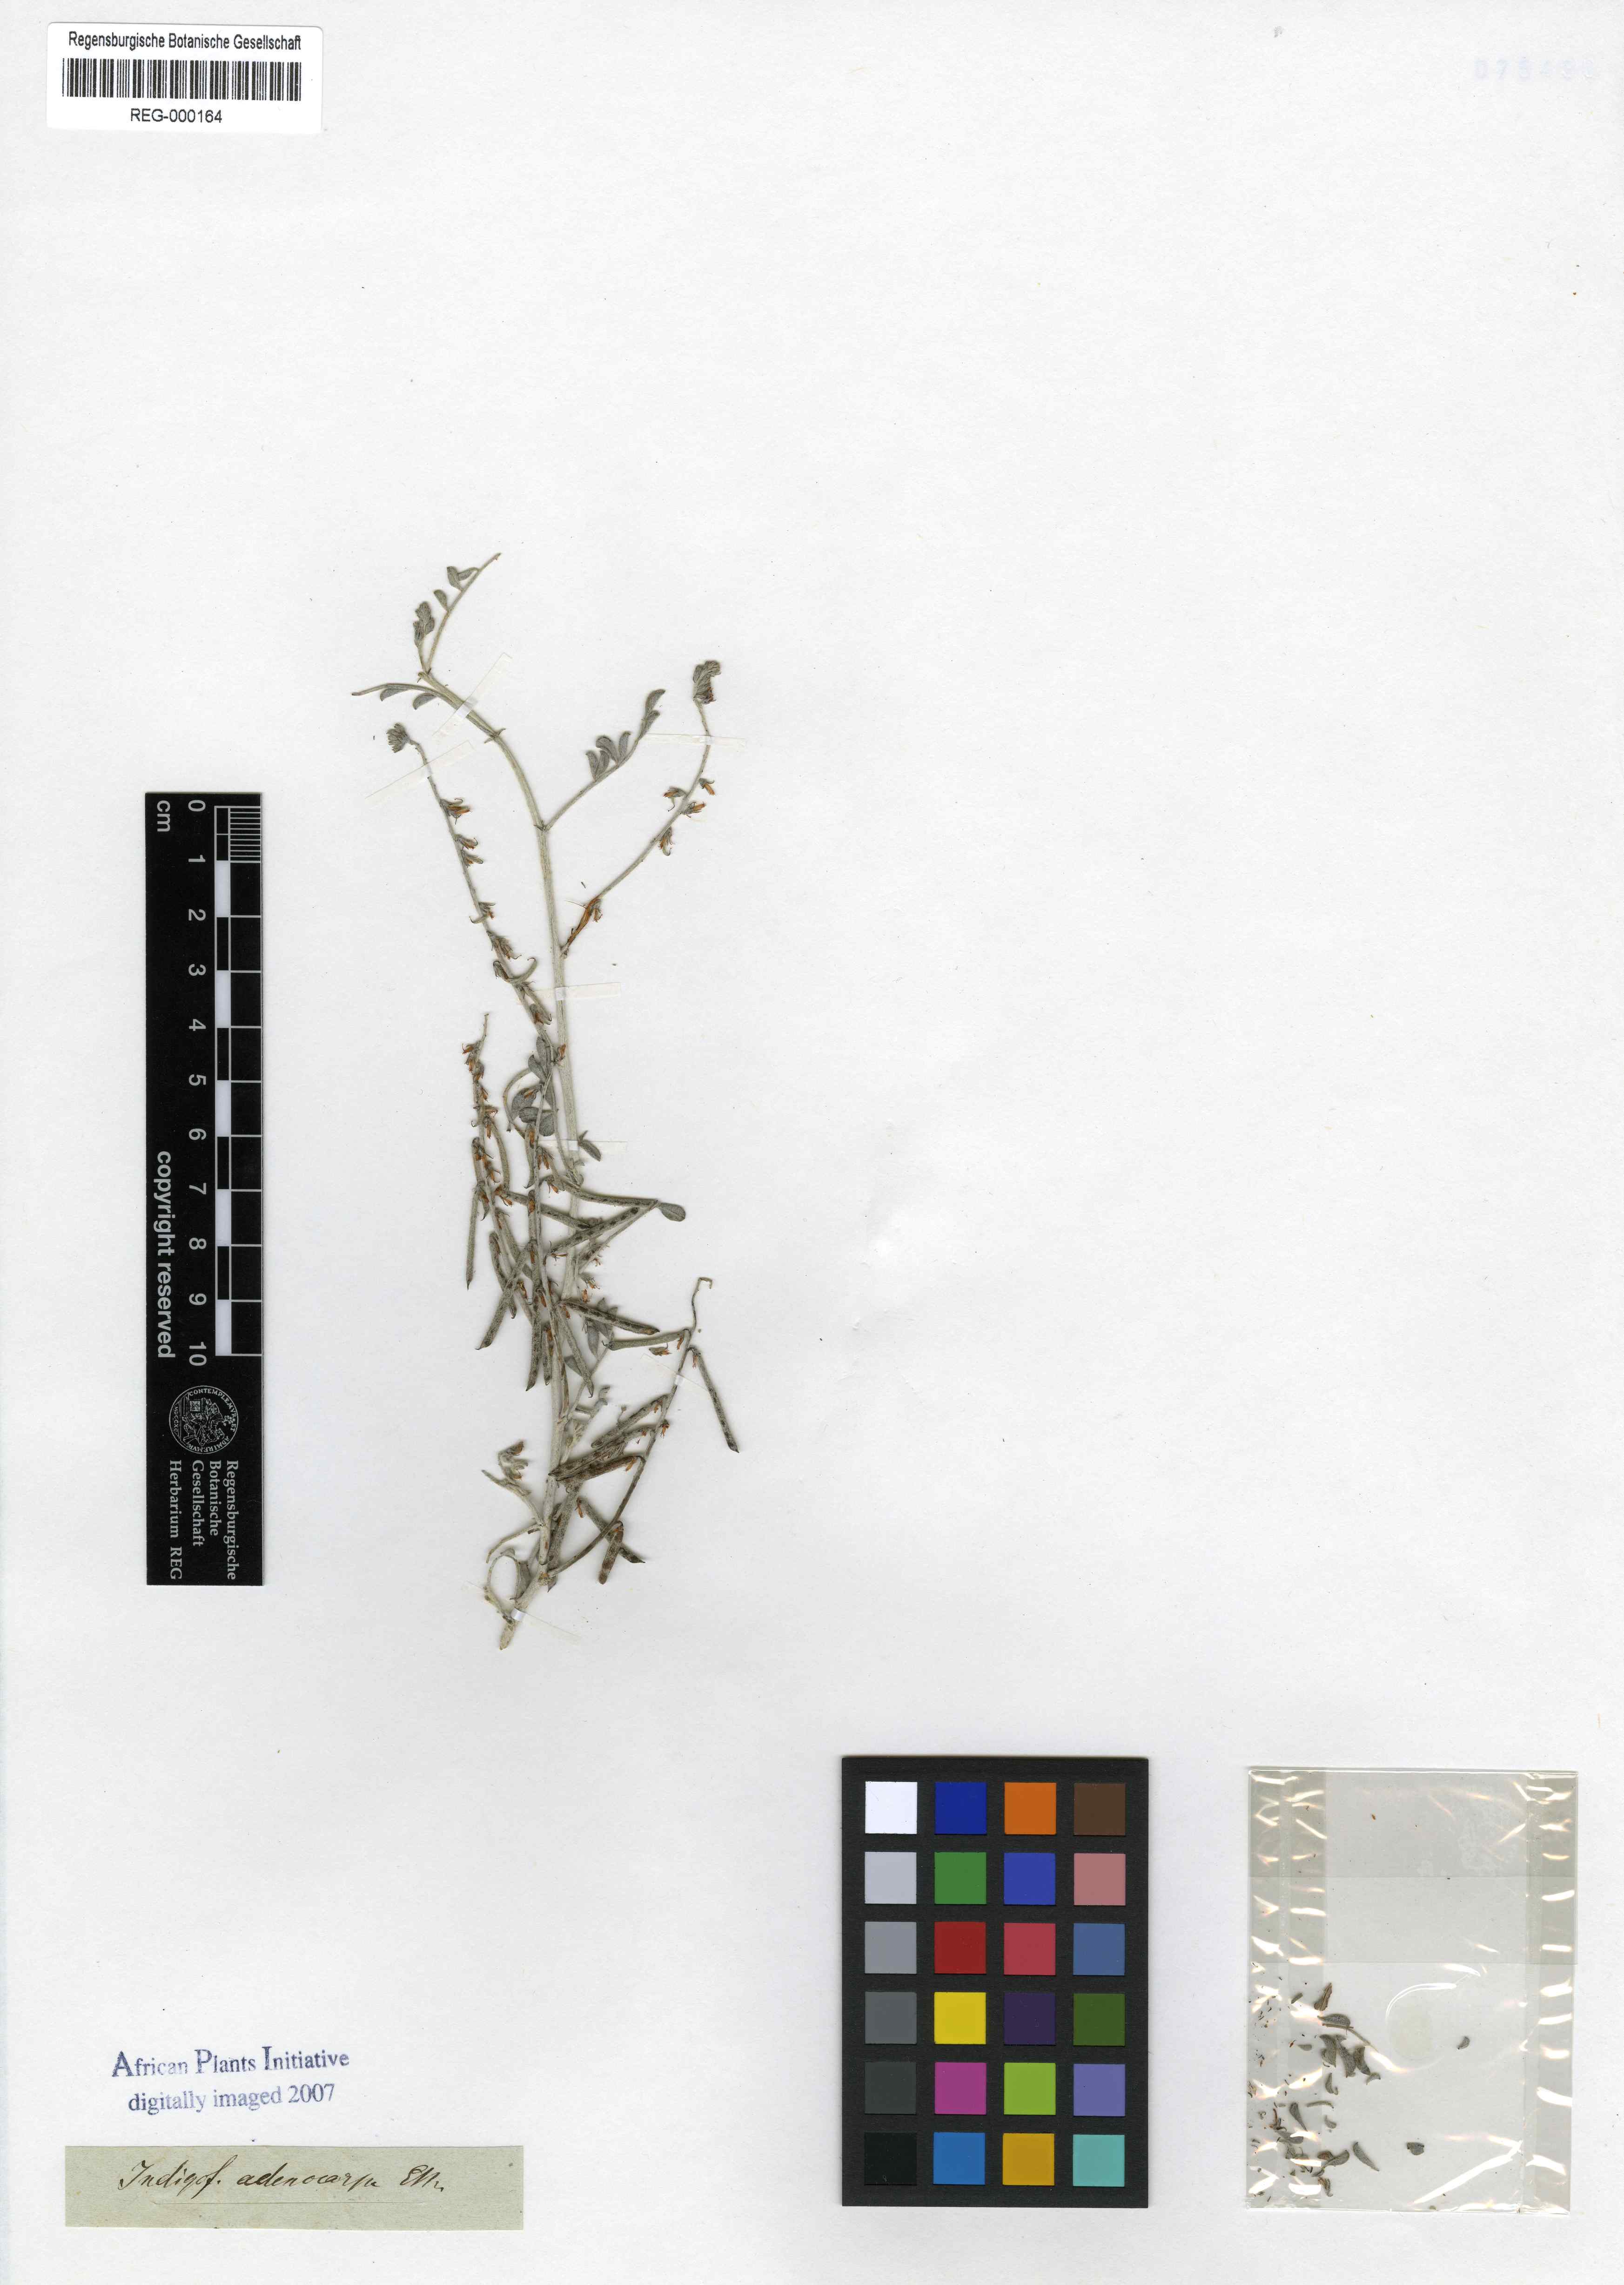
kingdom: Plantae
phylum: Tracheophyta
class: Magnoliopsida
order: Fabales
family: Fabaceae
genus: Indigofera
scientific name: Indigofera adenocarpa
